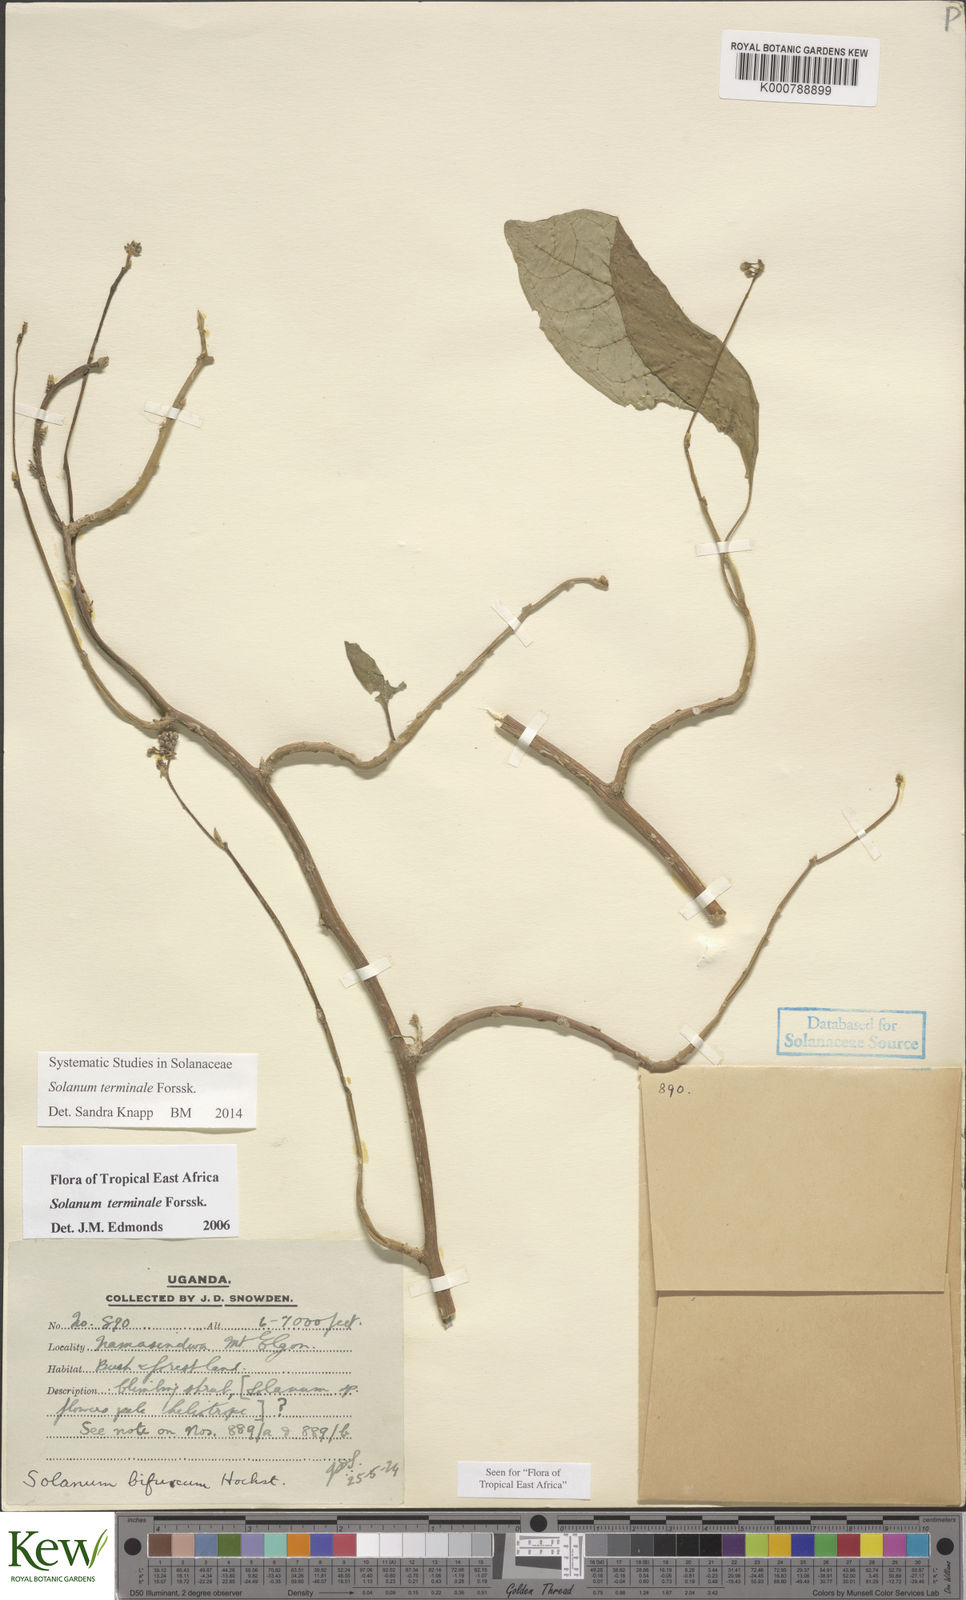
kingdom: Plantae
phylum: Tracheophyta
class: Magnoliopsida
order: Solanales
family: Solanaceae
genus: Solanum
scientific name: Solanum terminale
